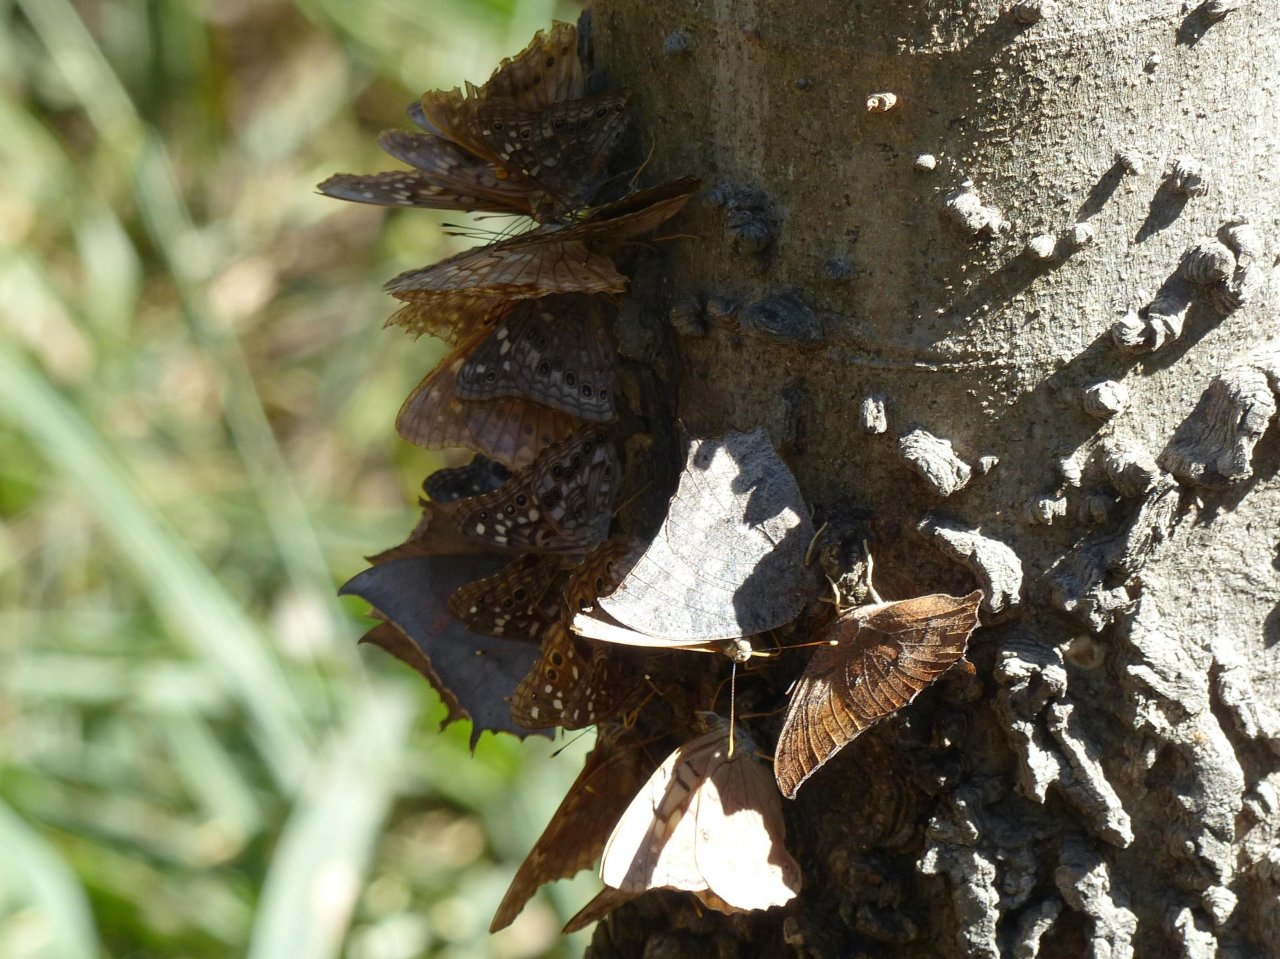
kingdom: Animalia
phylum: Arthropoda
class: Insecta
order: Lepidoptera
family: Nymphalidae
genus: Anaea
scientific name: Anaea aidea
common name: Tropical Leafwing
